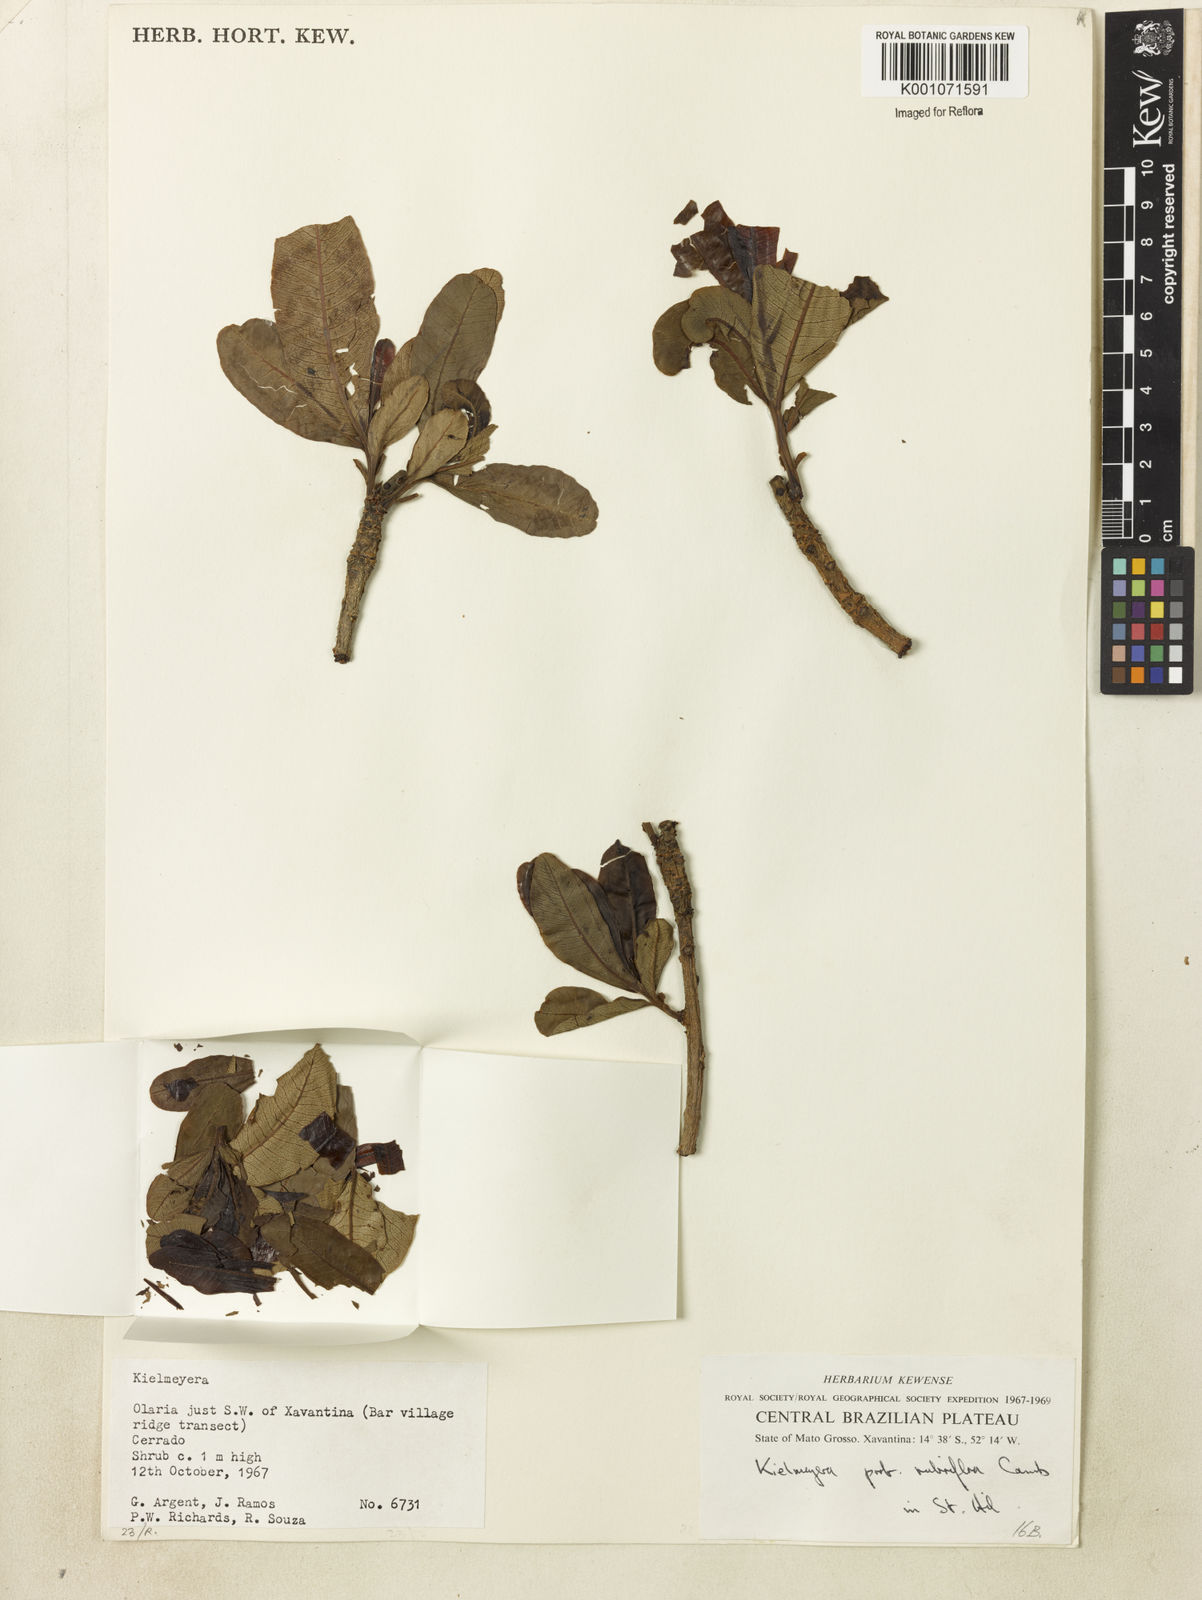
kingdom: Plantae
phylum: Tracheophyta
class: Magnoliopsida
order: Malpighiales
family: Calophyllaceae
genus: Kielmeyera
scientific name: Kielmeyera rubriflora
